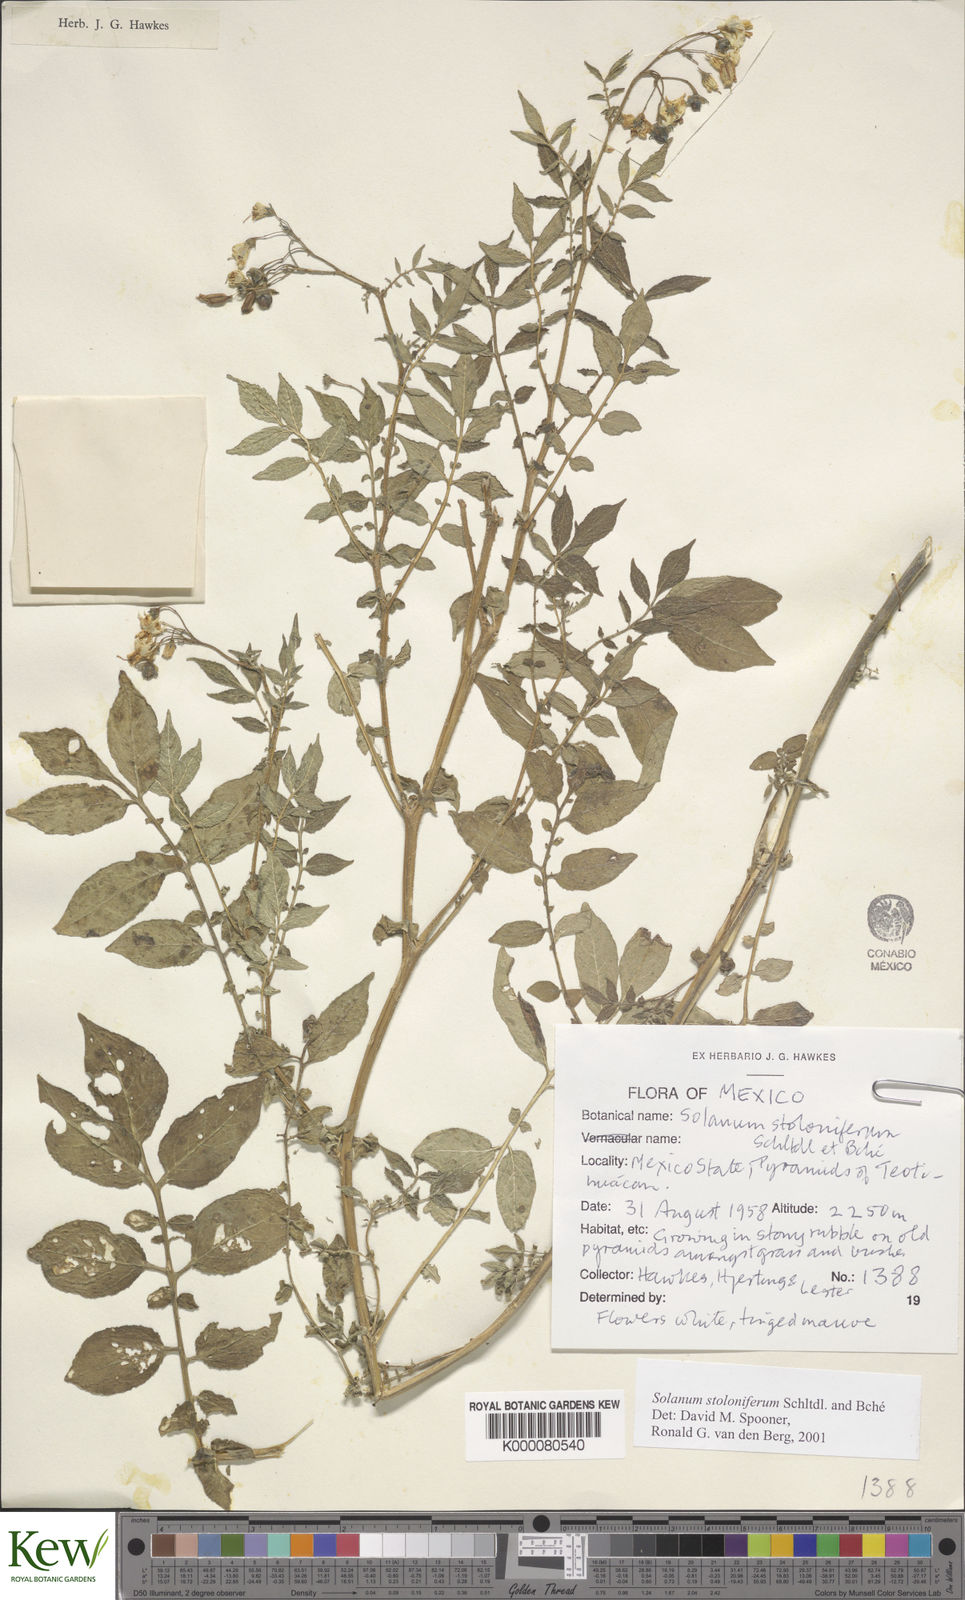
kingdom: Plantae
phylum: Tracheophyta
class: Magnoliopsida
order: Solanales
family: Solanaceae
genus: Solanum
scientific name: Solanum stoloniferum
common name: Fendler's nighshade
